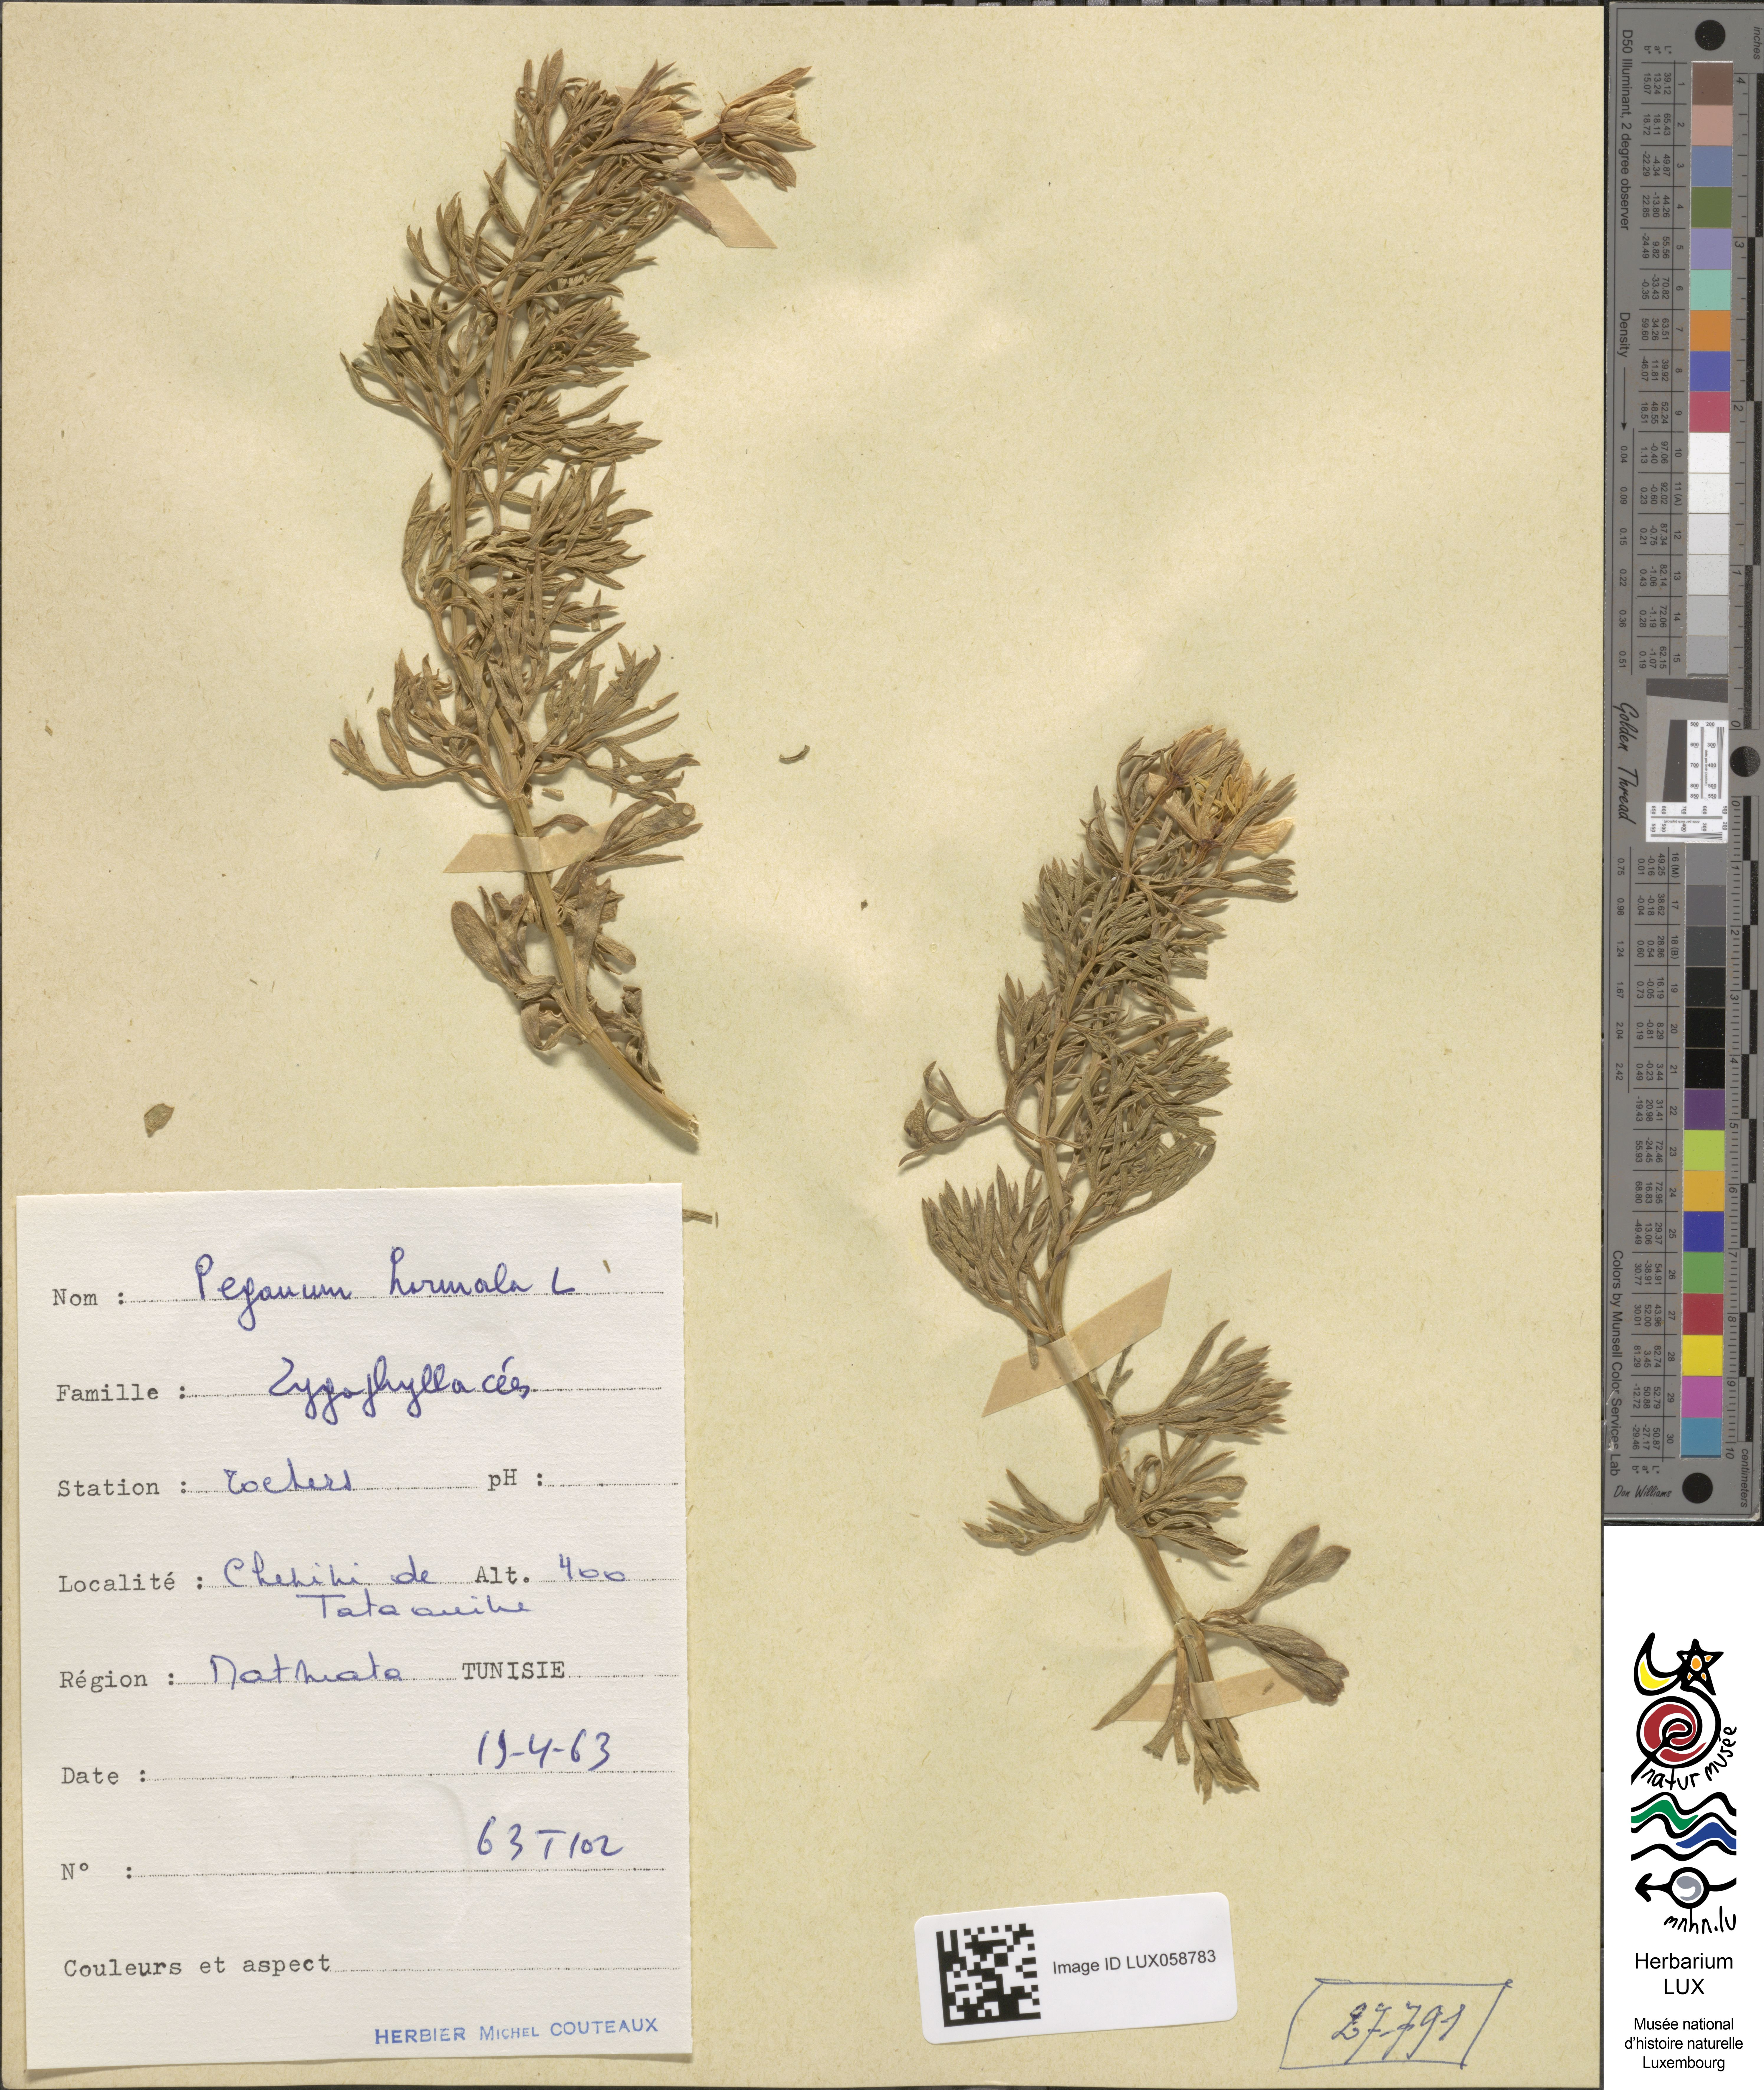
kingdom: Plantae
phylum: Tracheophyta
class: Magnoliopsida
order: Sapindales
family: Tetradiclidaceae
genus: Peganum
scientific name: Peganum harmala
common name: Harmal peganum
